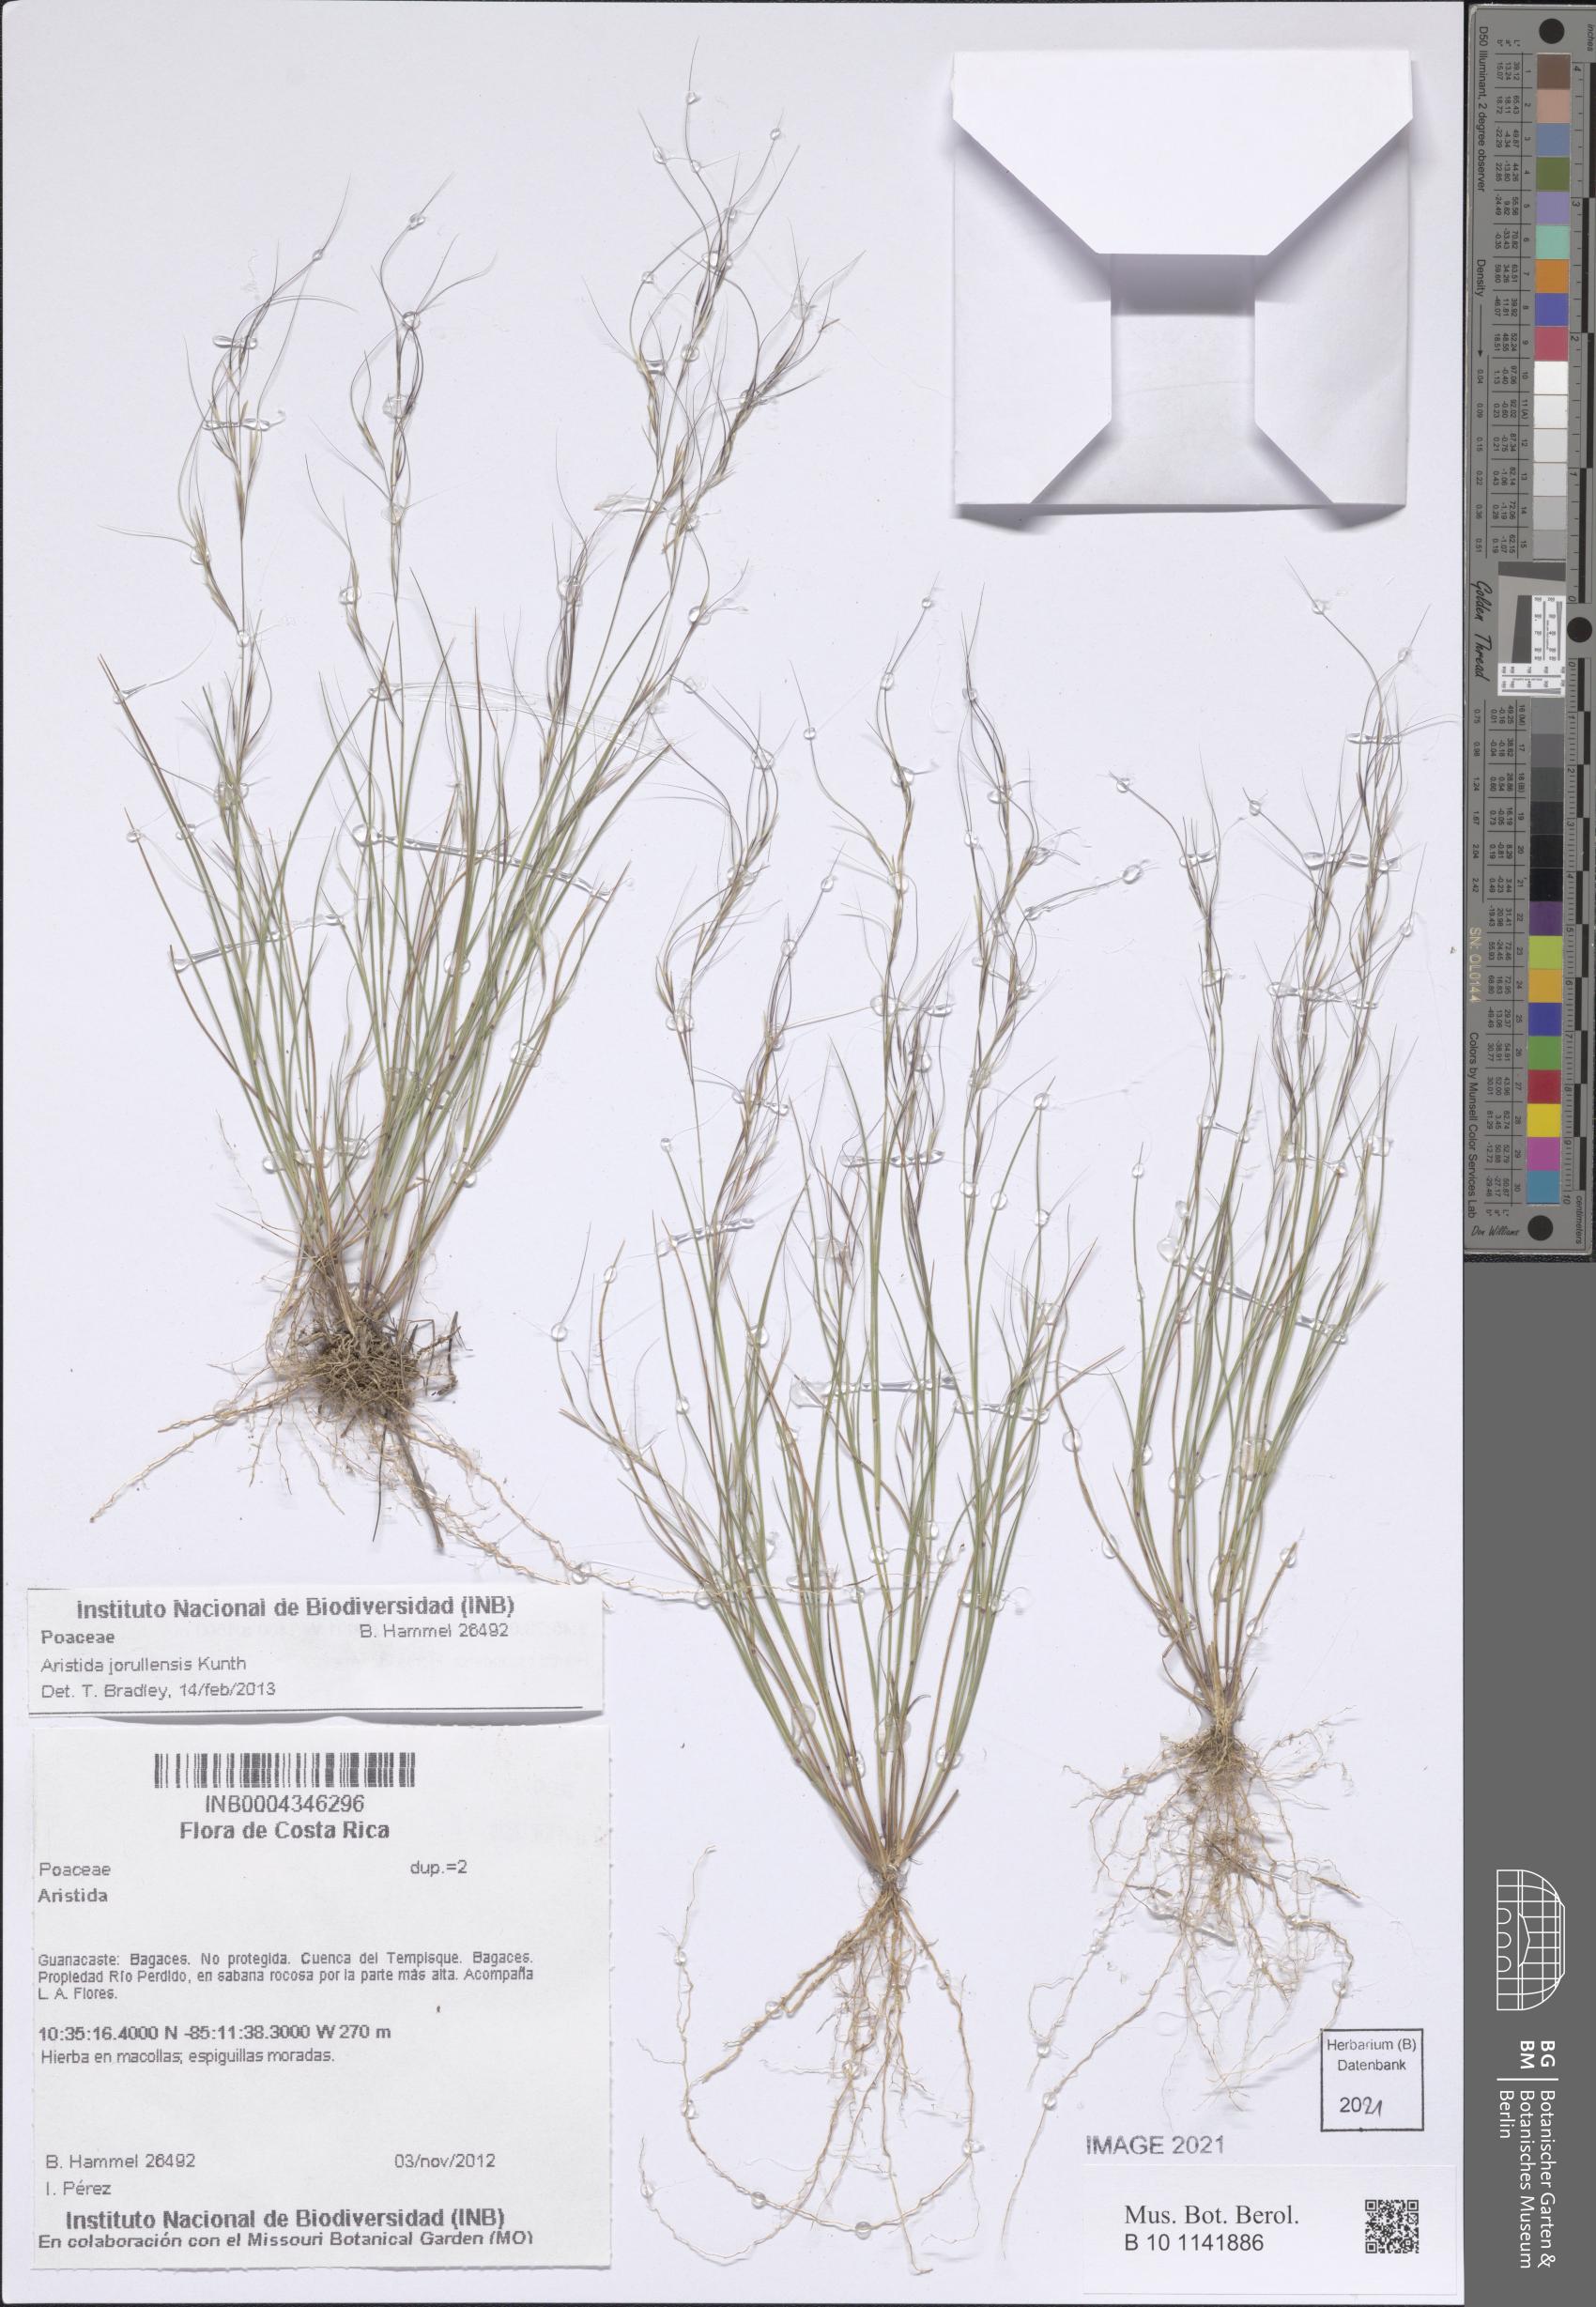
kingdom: Plantae
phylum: Tracheophyta
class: Liliopsida
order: Poales
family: Poaceae
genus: Aristida
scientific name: Aristida jorullensis
